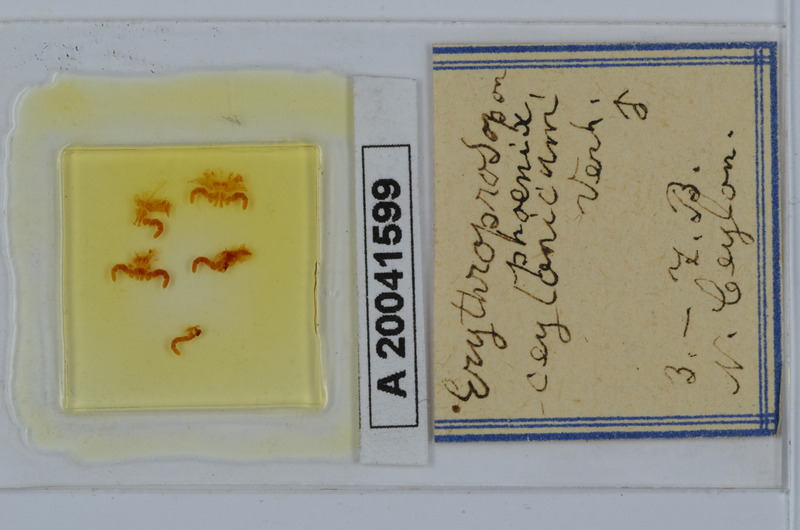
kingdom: Animalia
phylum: Arthropoda
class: Diplopoda
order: Spirobolida
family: Pachybolidae
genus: Erythroprosopon
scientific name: Erythroprosopon phoenix
